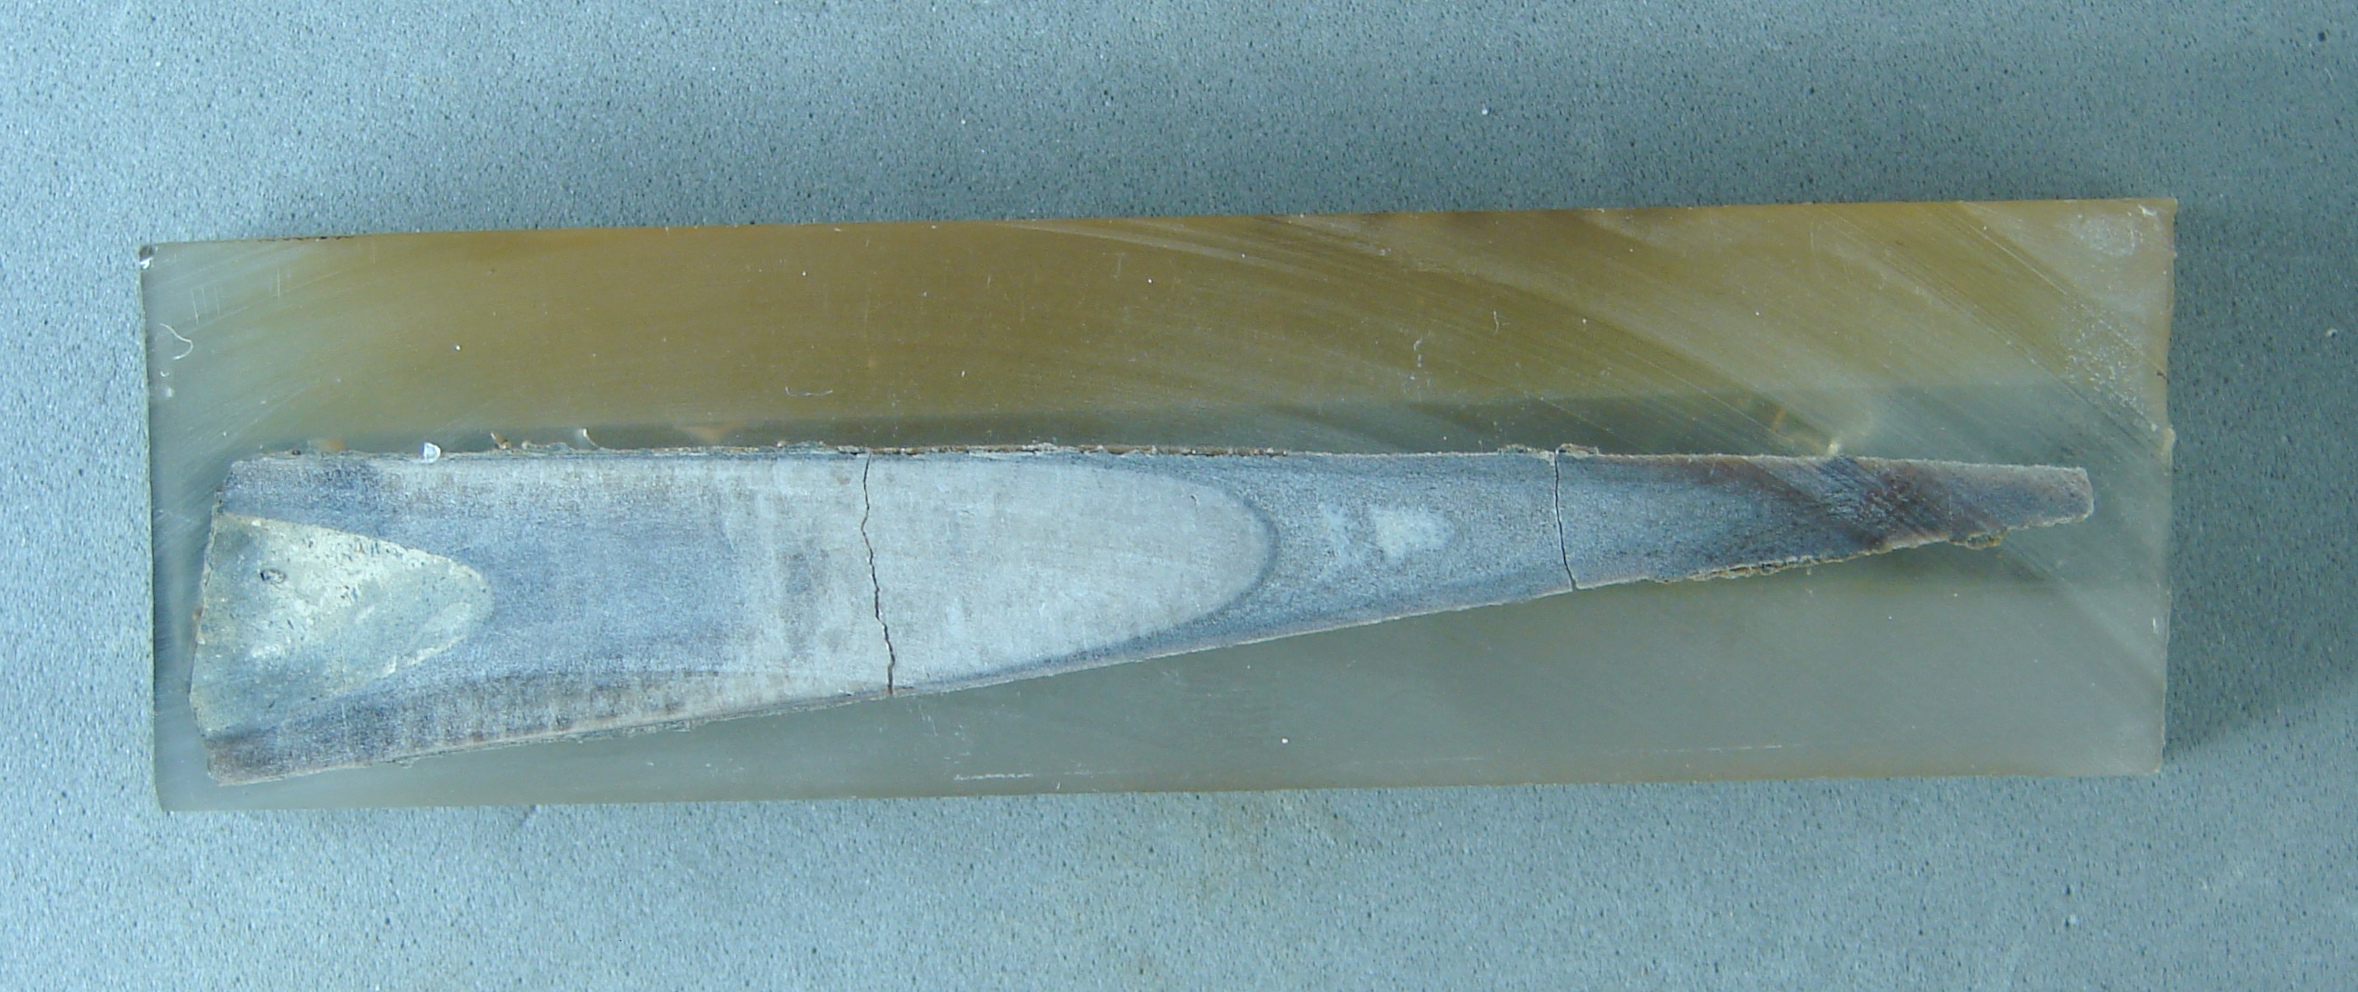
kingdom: Animalia
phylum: Mollusca
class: Cephalopoda
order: Belemnitida
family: Megateuthididae
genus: Dactyloteuthis
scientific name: Dactyloteuthis semistriata
